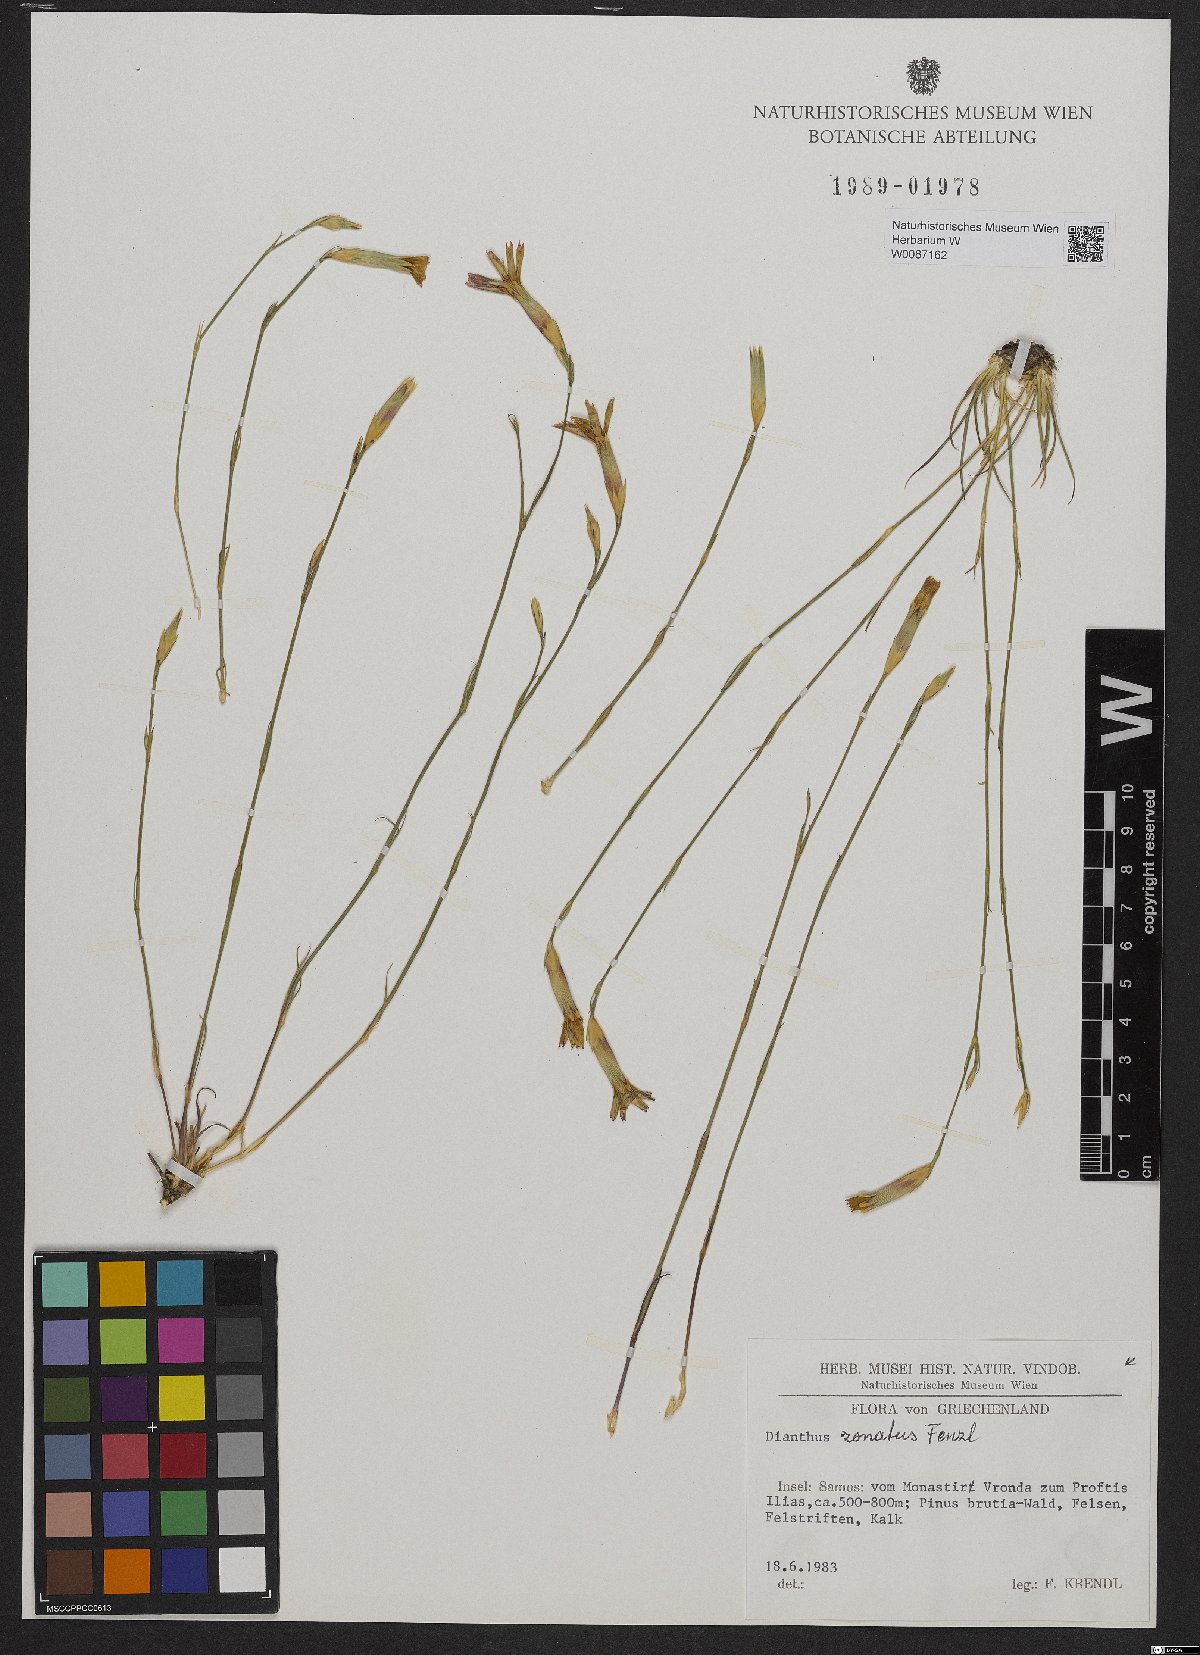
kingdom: Plantae
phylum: Tracheophyta
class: Magnoliopsida
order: Caryophyllales
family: Caryophyllaceae
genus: Dianthus
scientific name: Dianthus zonatus
